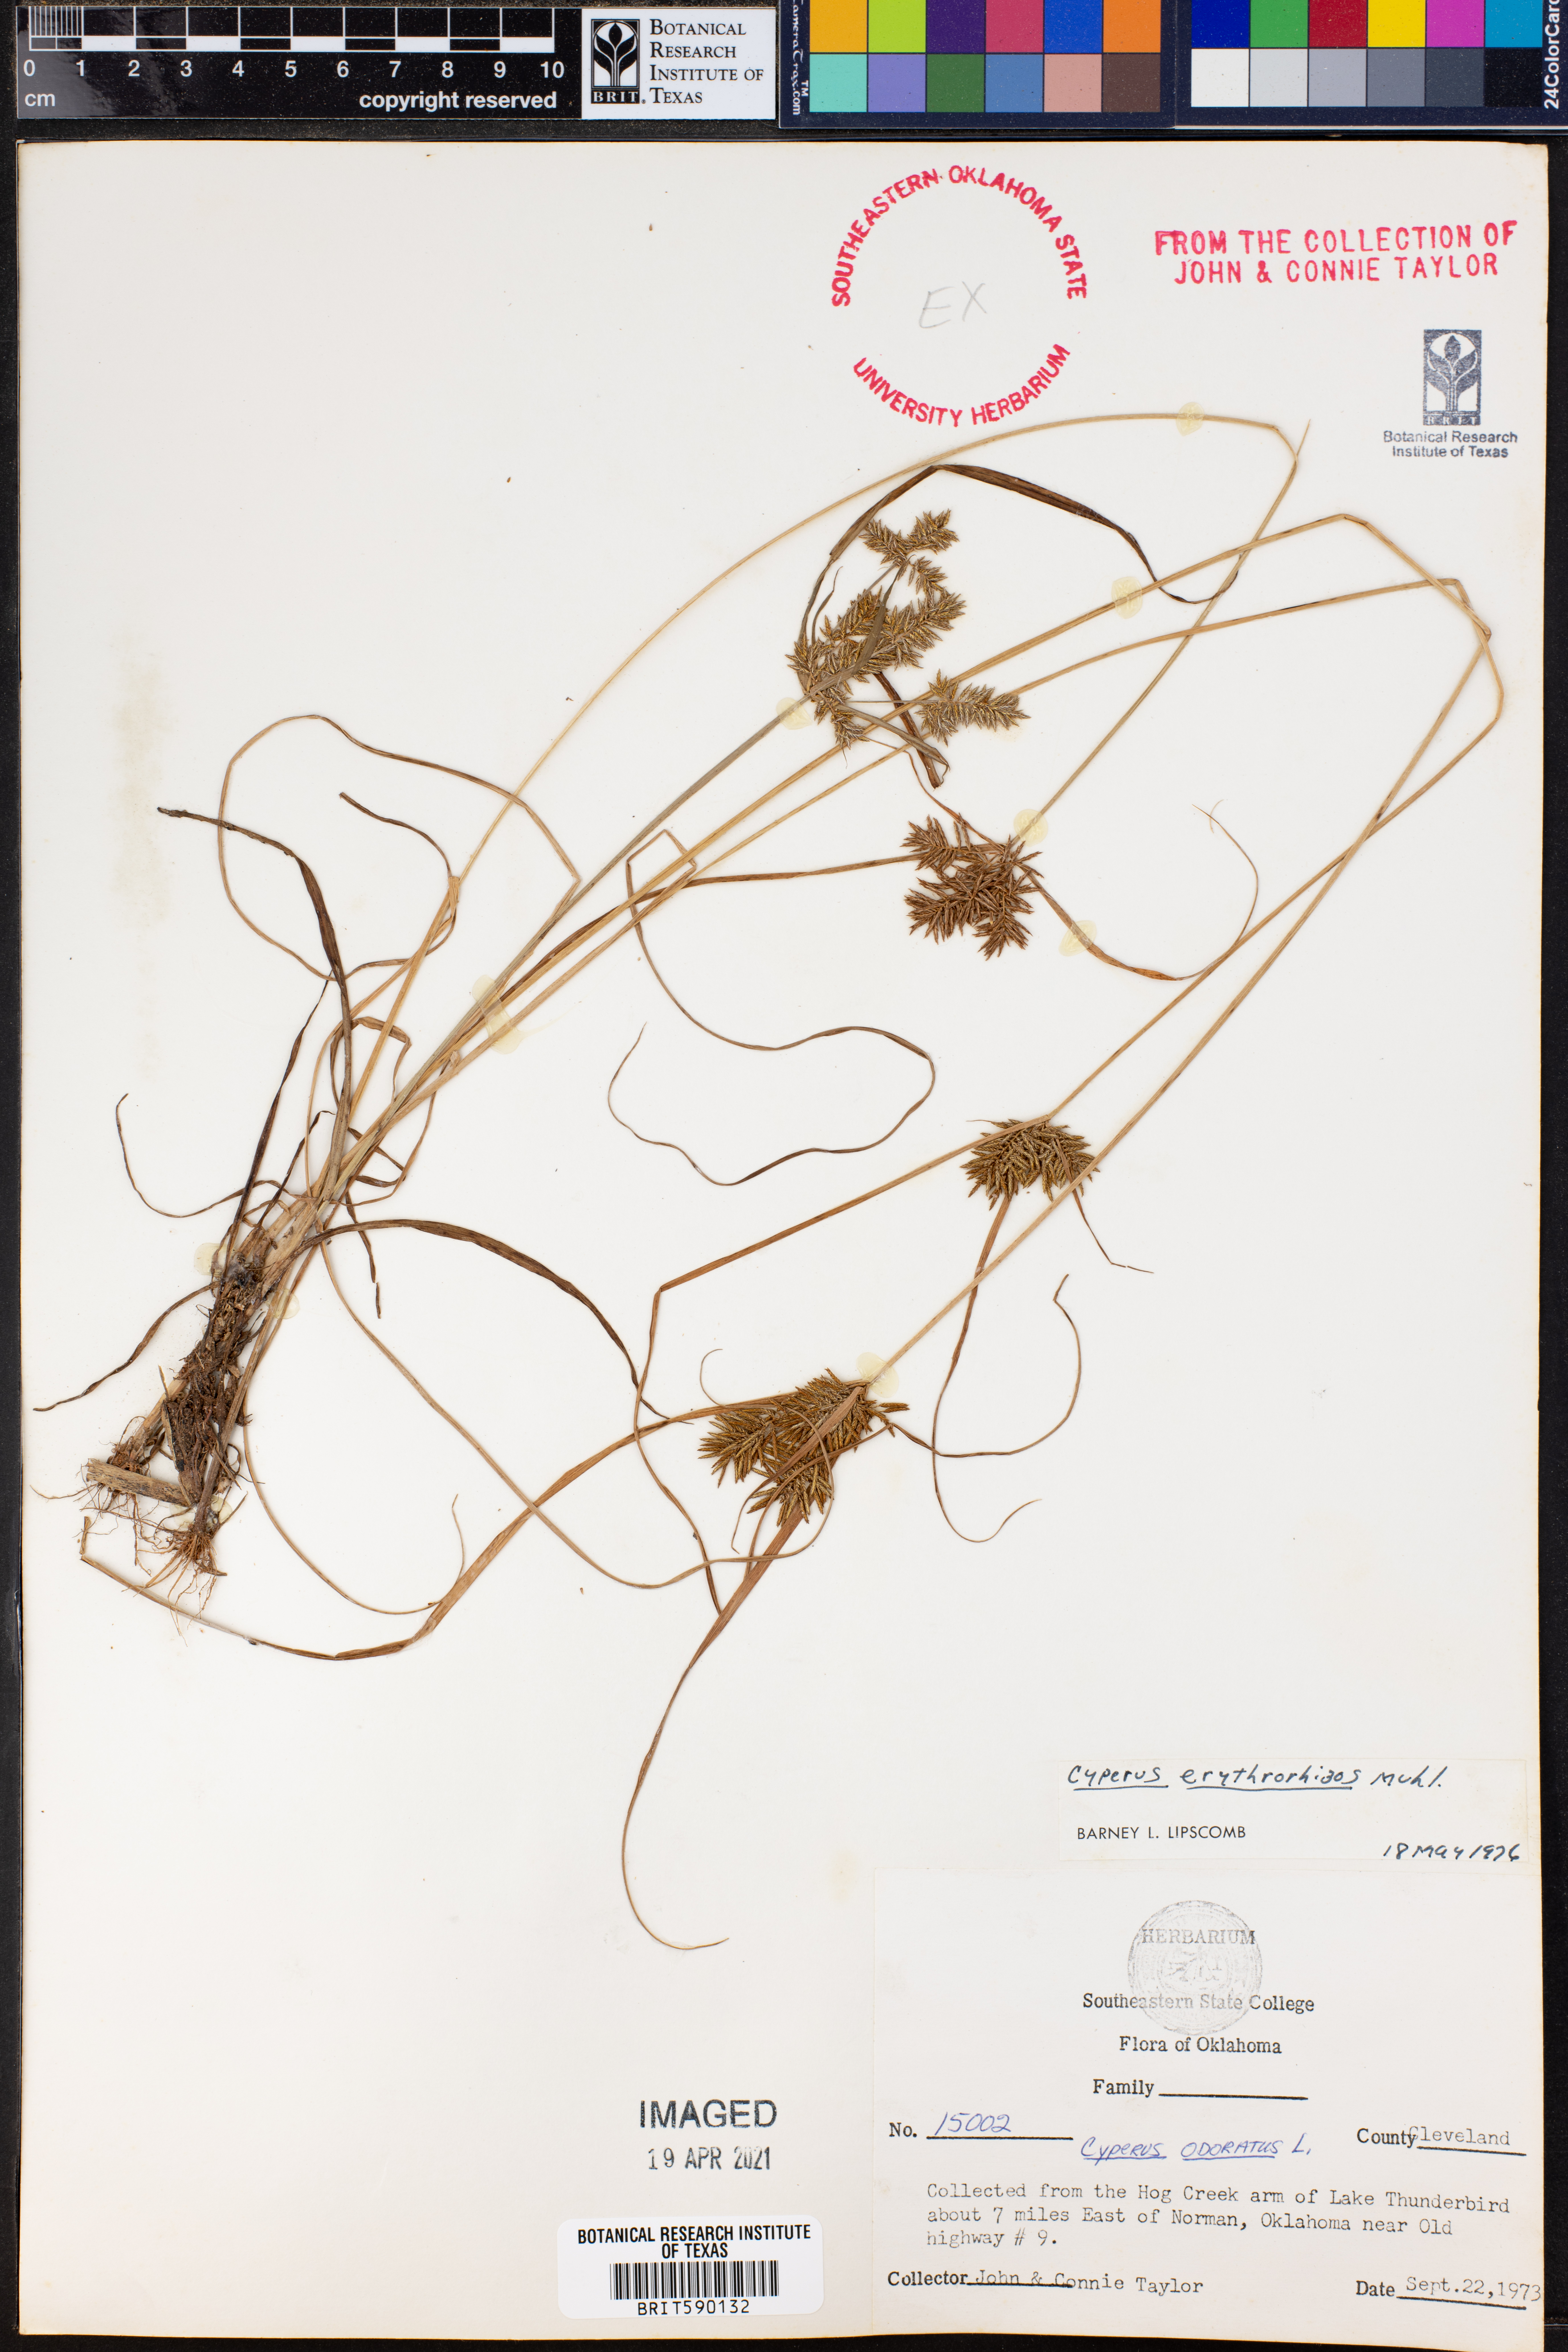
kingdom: Plantae
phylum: Tracheophyta
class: Liliopsida
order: Poales
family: Cyperaceae
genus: Cyperus
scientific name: Cyperus erythrorhizos
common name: Red-root flat sedge
